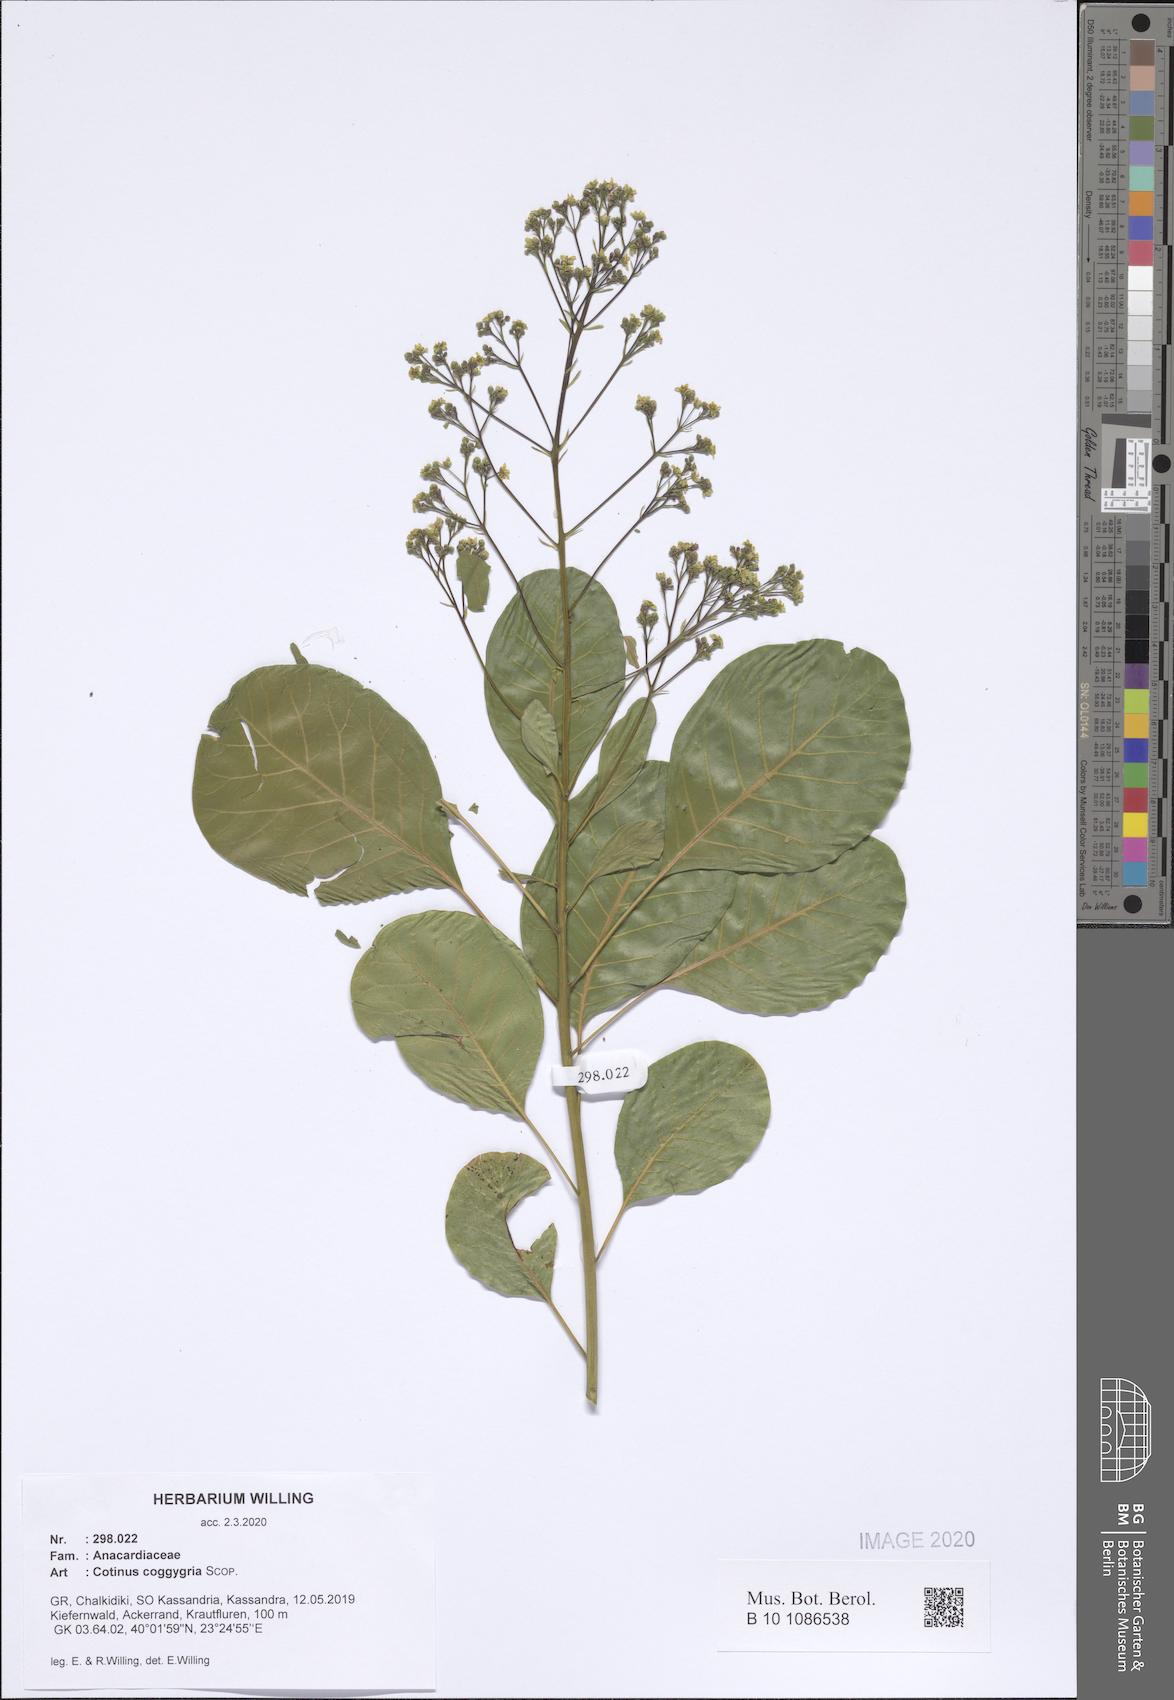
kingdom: Plantae
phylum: Tracheophyta
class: Magnoliopsida
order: Sapindales
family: Anacardiaceae
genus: Cotinus
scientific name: Cotinus coggygria
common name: Smoke-tree
